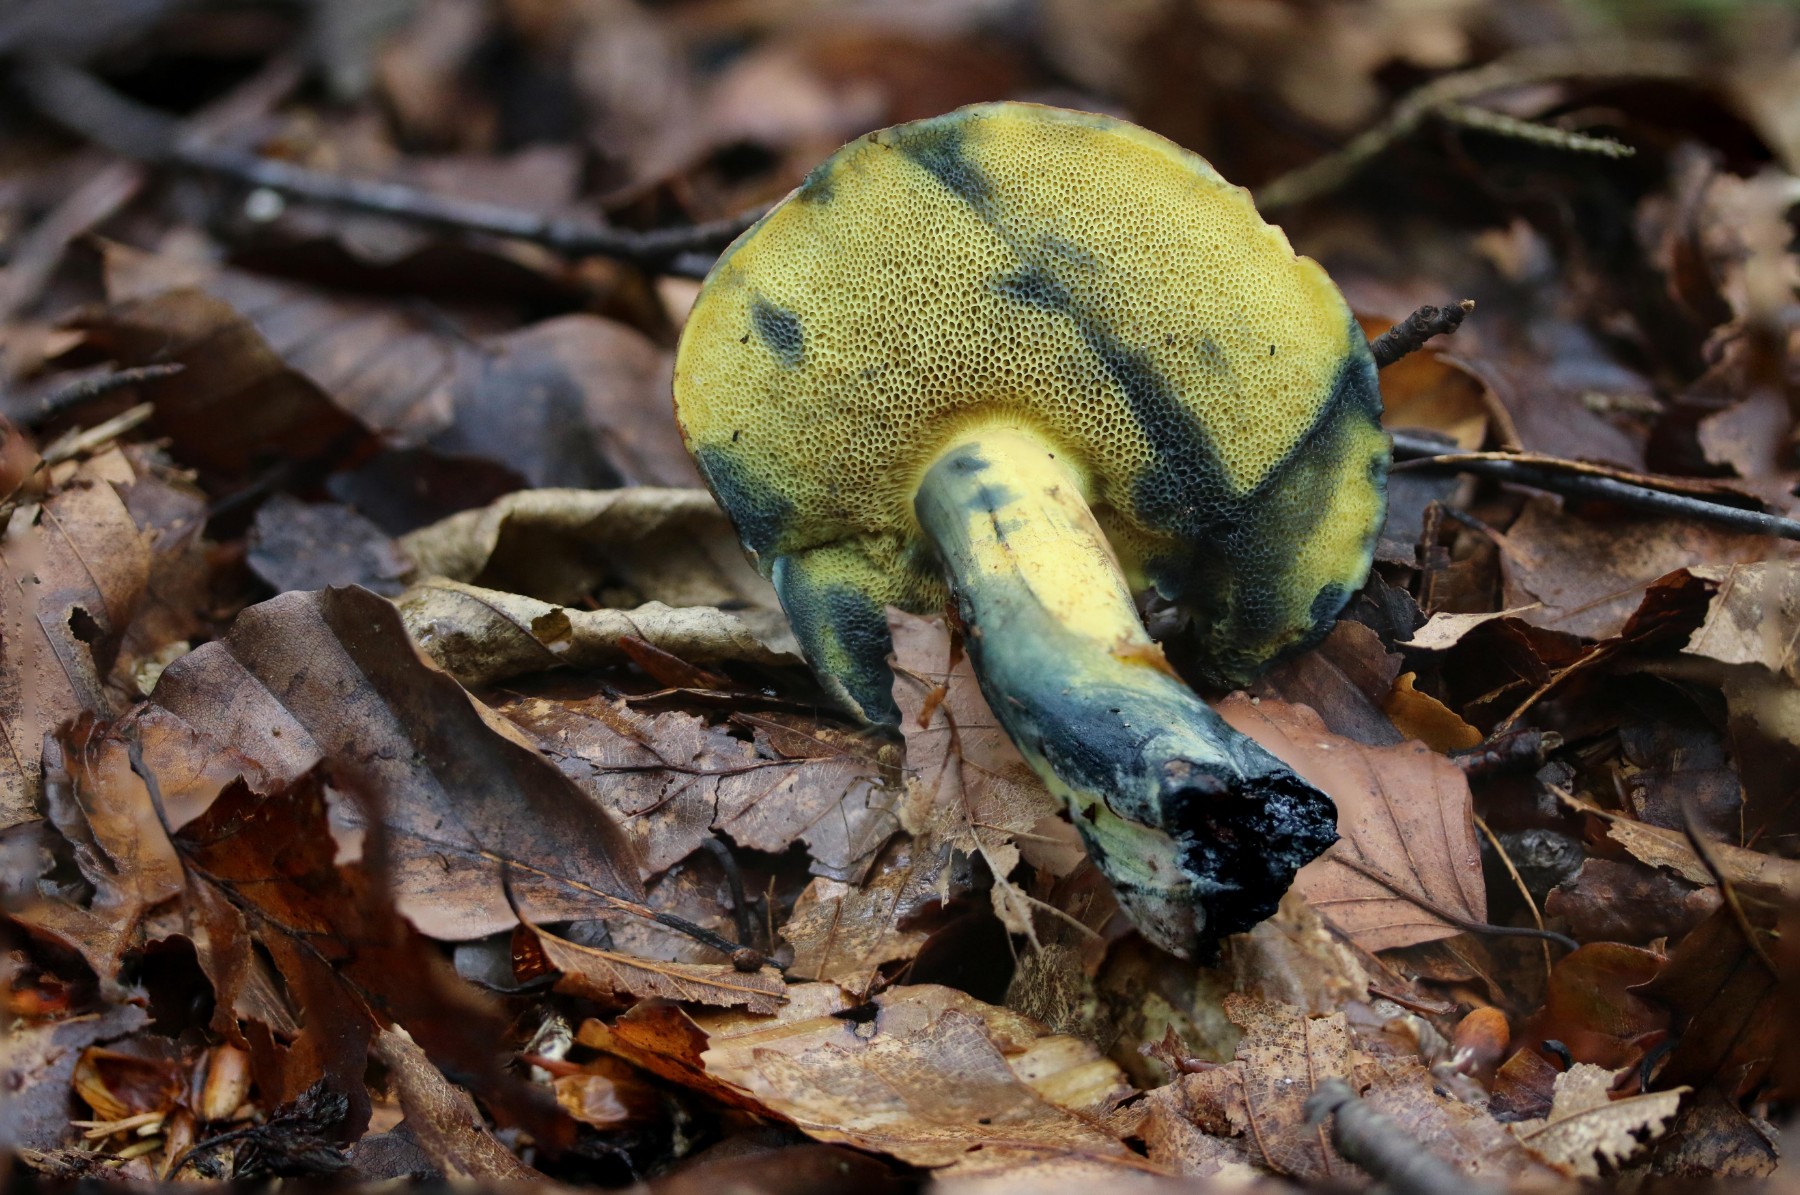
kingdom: Fungi
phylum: Basidiomycota
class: Agaricomycetes
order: Boletales
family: Boletaceae
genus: Cyanoboletus
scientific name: Cyanoboletus pulverulentus
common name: sortblånende rørhat
